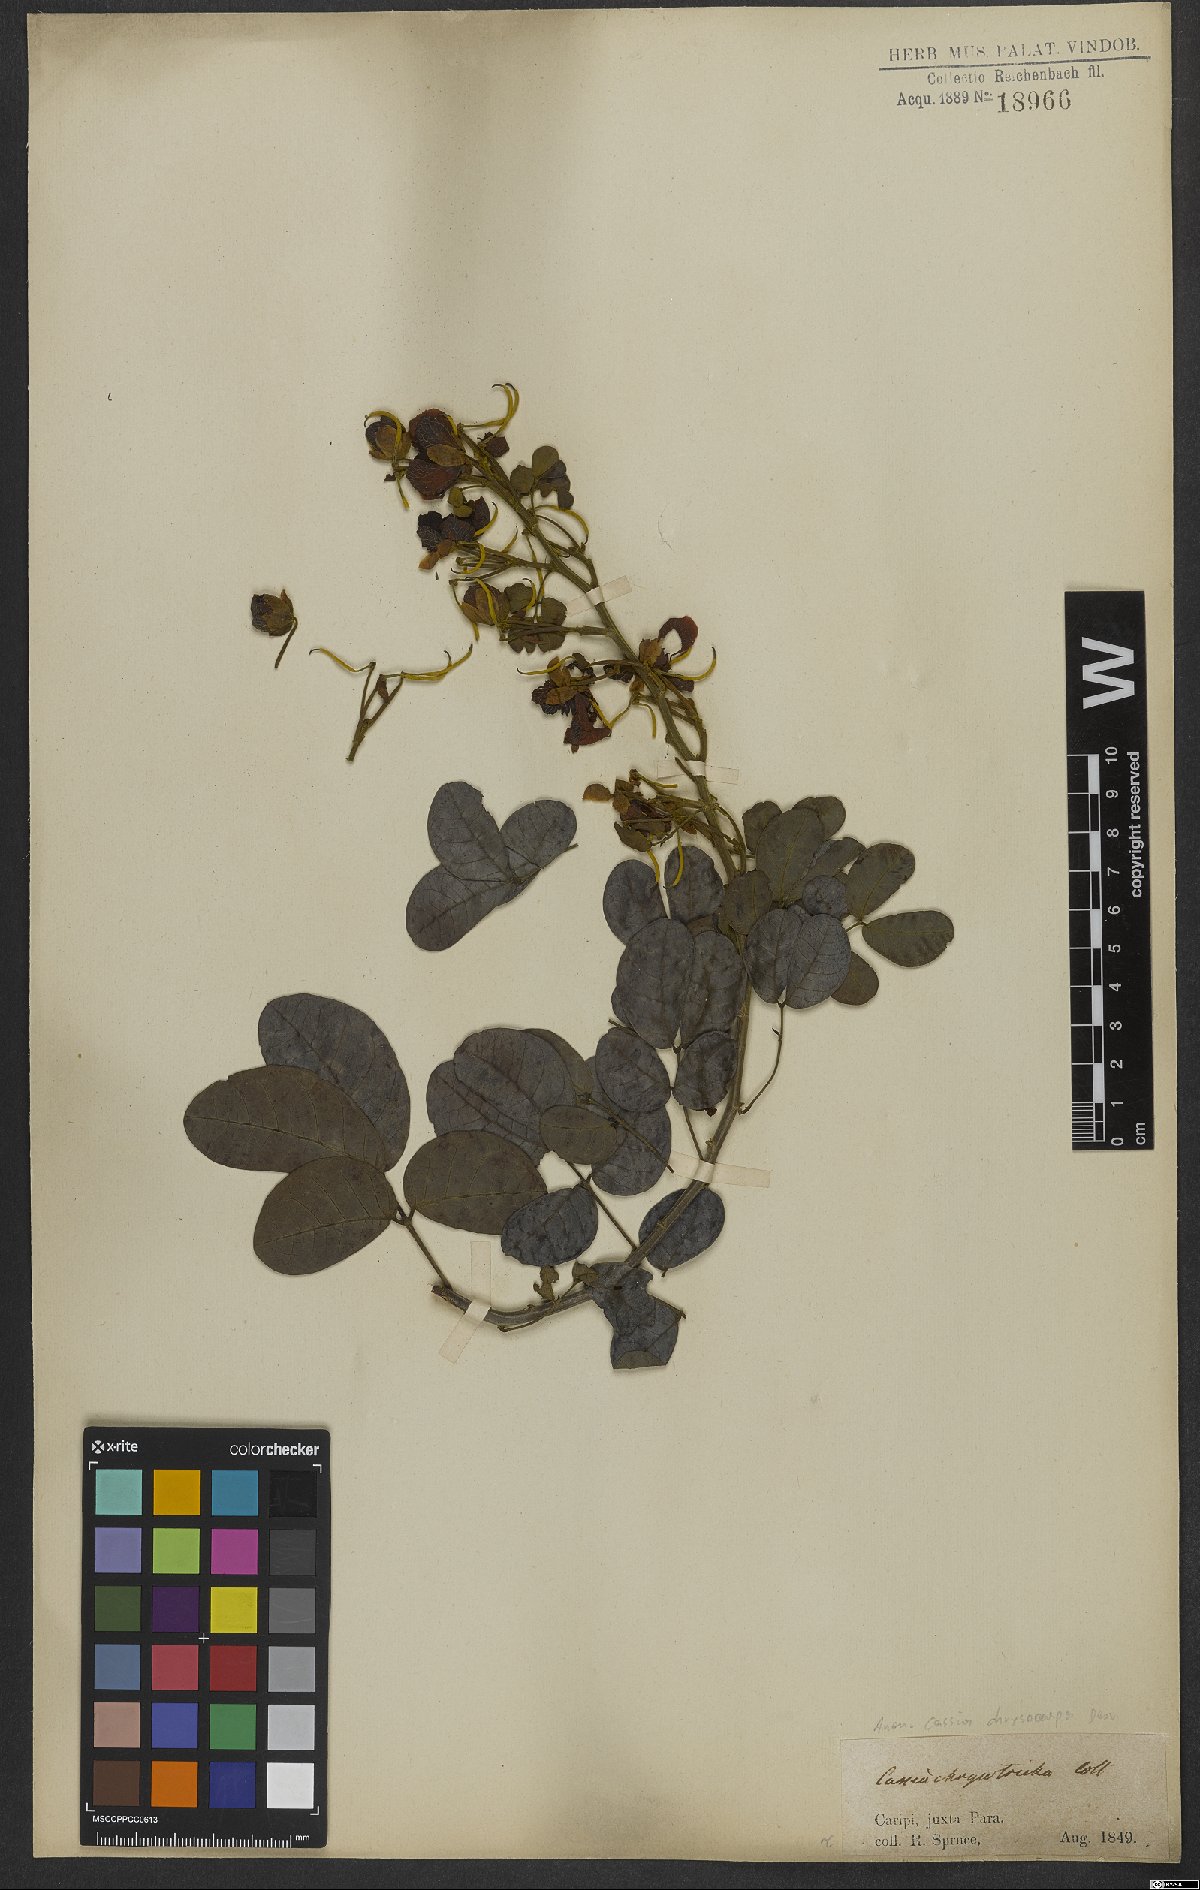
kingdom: Plantae
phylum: Tracheophyta
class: Magnoliopsida
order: Fabales
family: Fabaceae
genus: Senna
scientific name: Senna chrysocarpa
